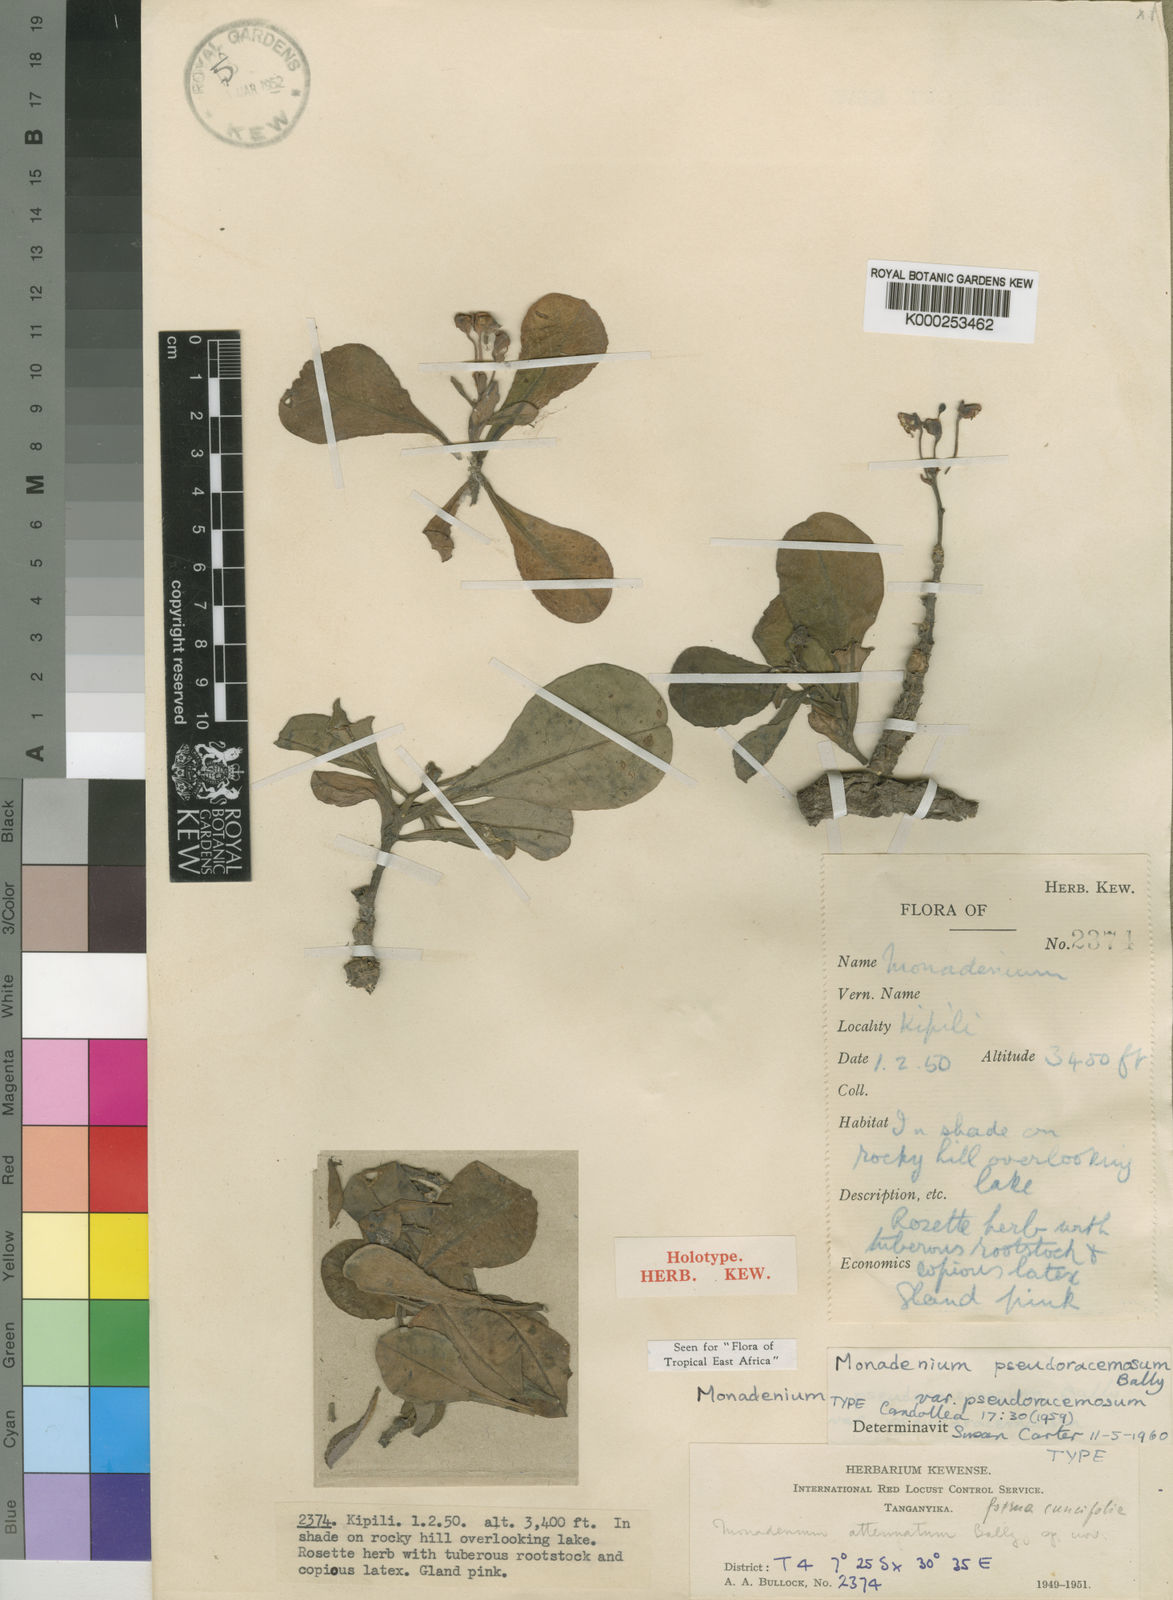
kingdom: Plantae
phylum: Tracheophyta
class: Magnoliopsida
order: Malpighiales
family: Euphorbiaceae
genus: Euphorbia
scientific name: Euphorbia pseudoracemosa
